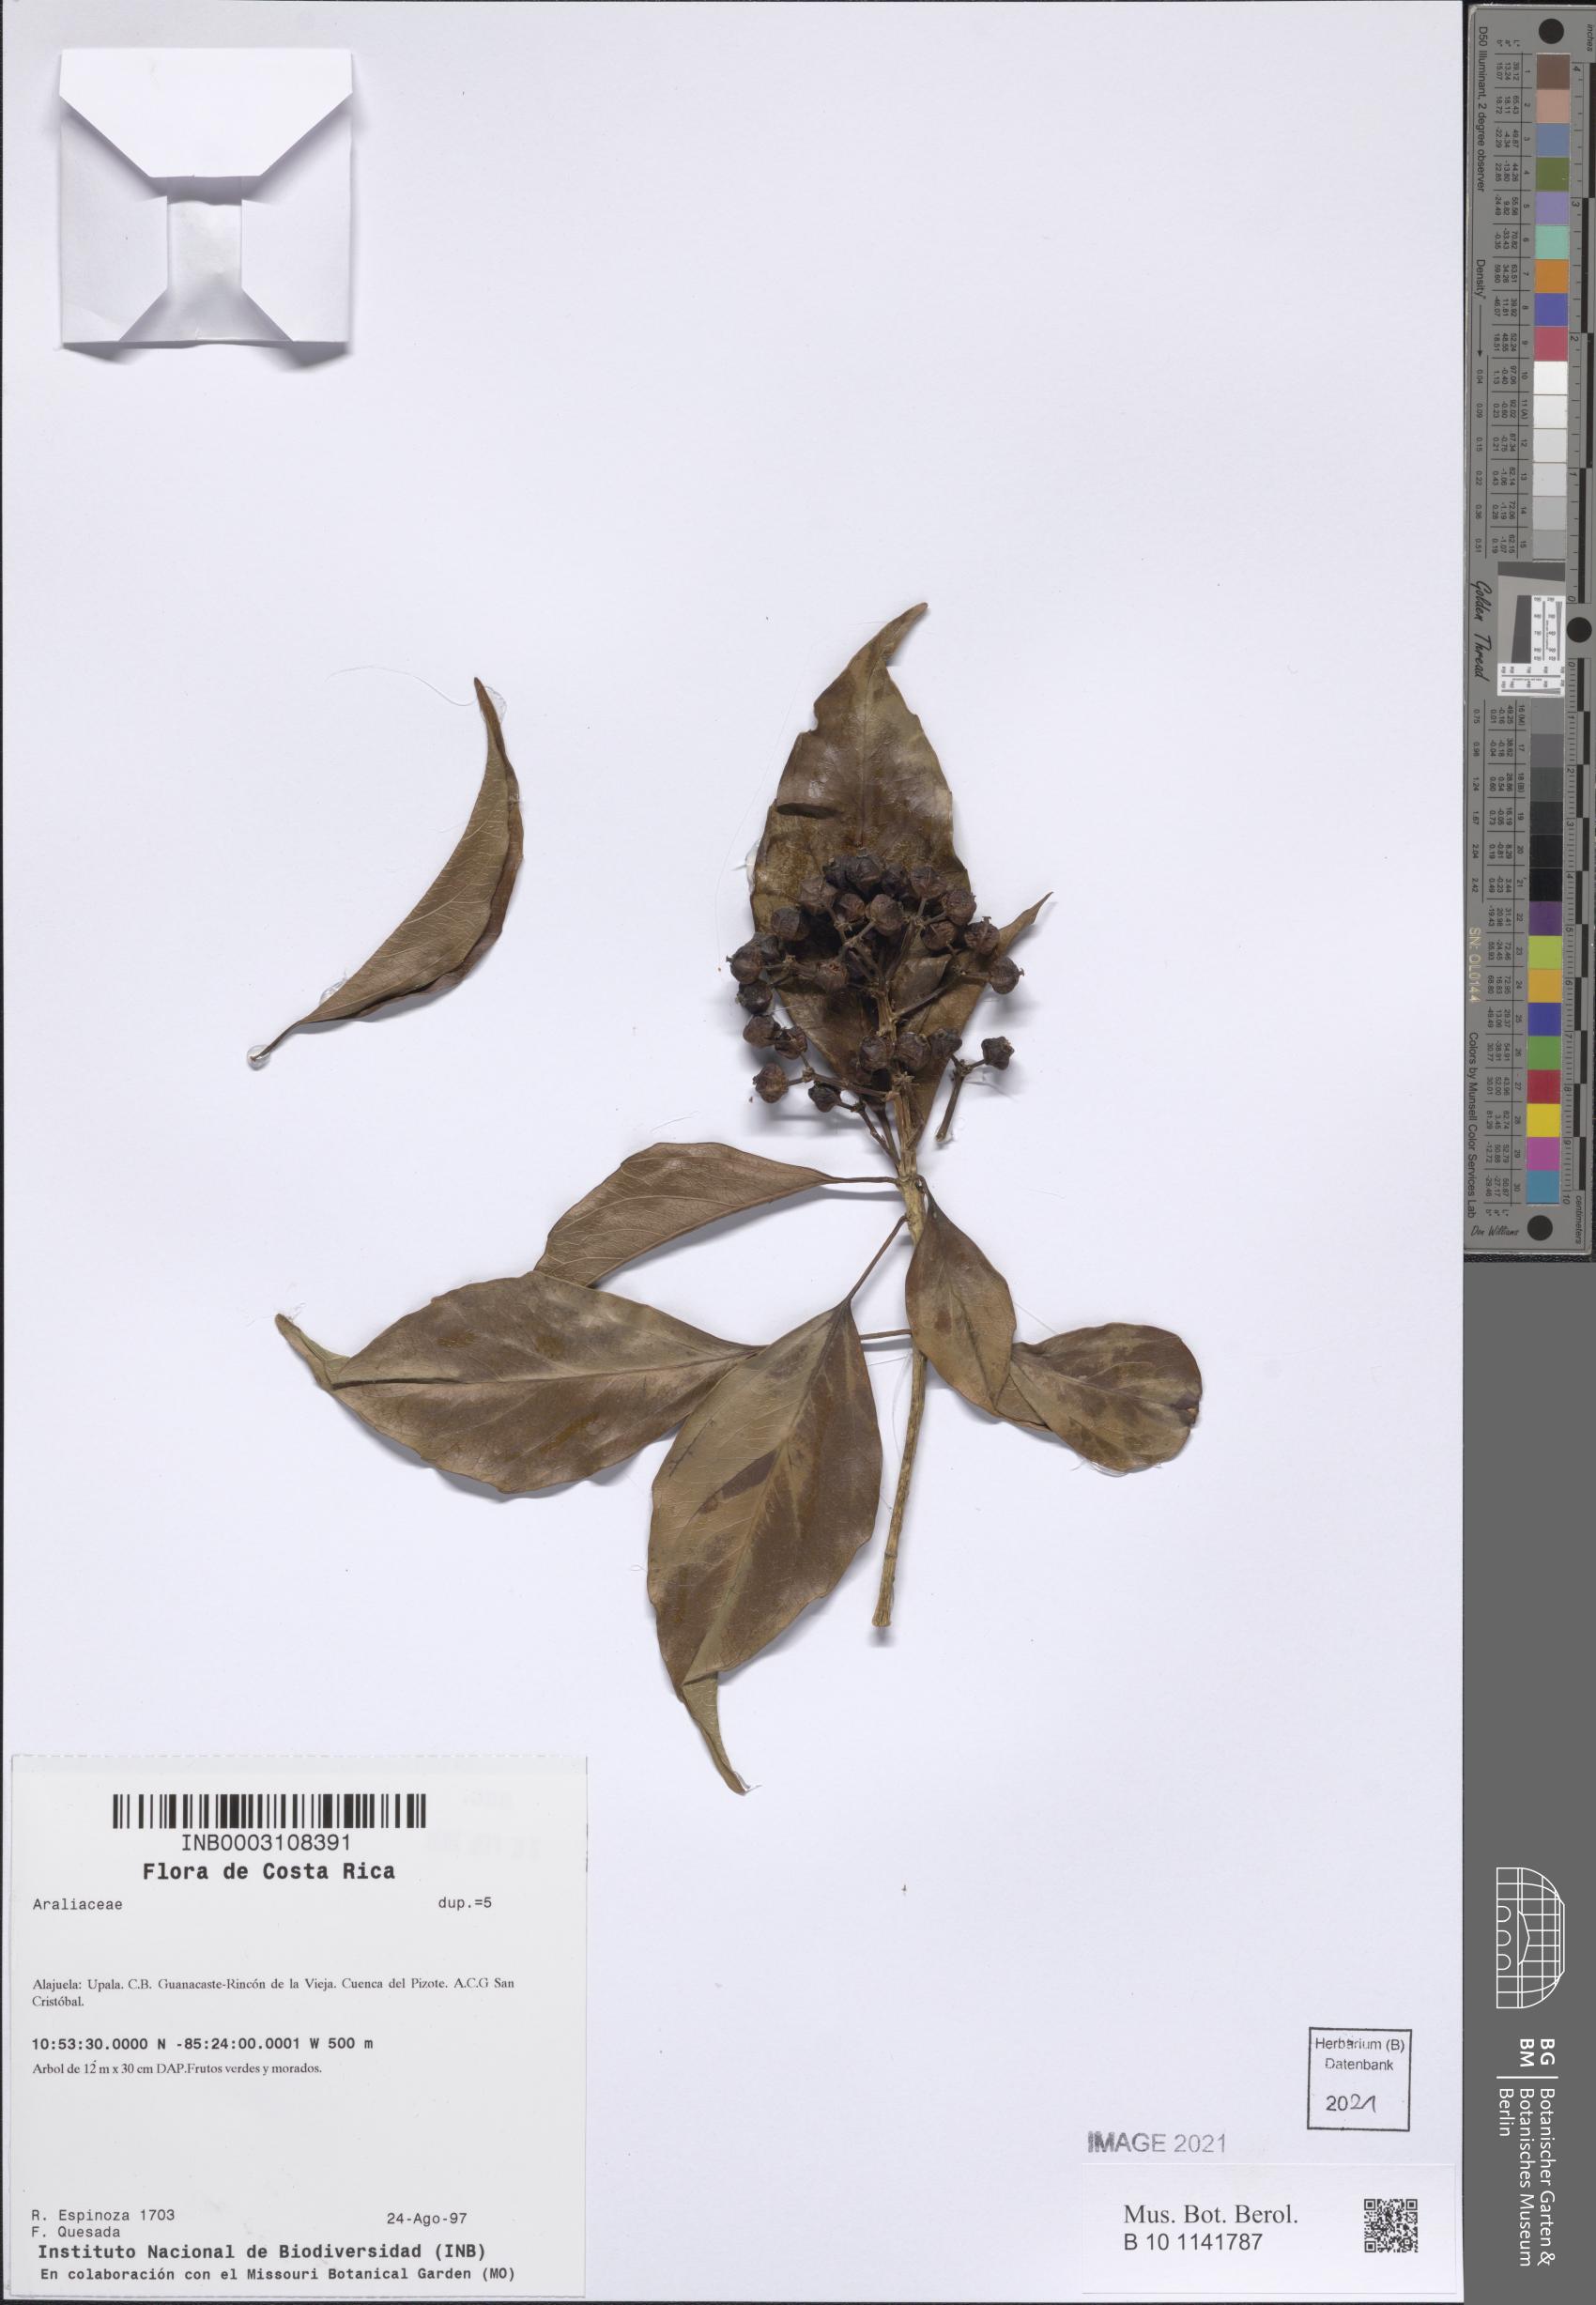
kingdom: Plantae
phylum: Tracheophyta
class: Magnoliopsida
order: Apiales
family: Araliaceae
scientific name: Araliaceae
